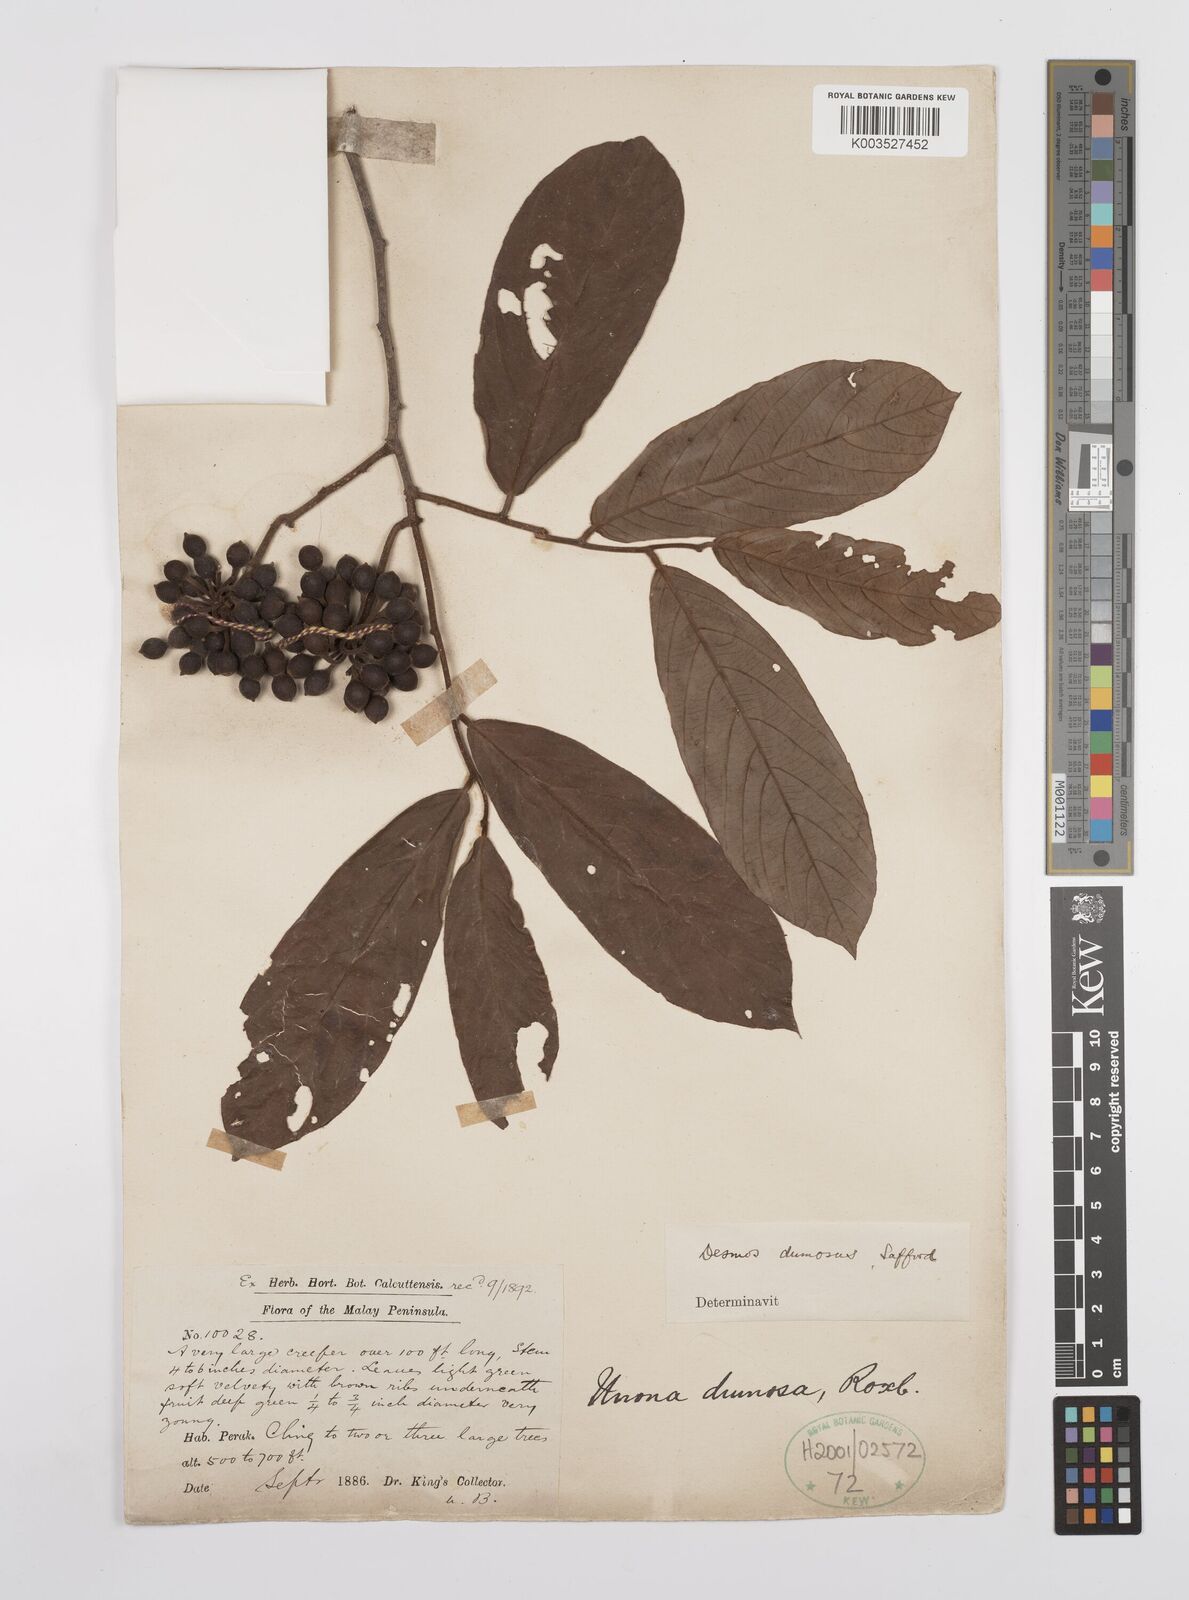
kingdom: Plantae
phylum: Tracheophyta
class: Magnoliopsida
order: Magnoliales
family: Annonaceae
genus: Desmos
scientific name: Desmos dumosus
